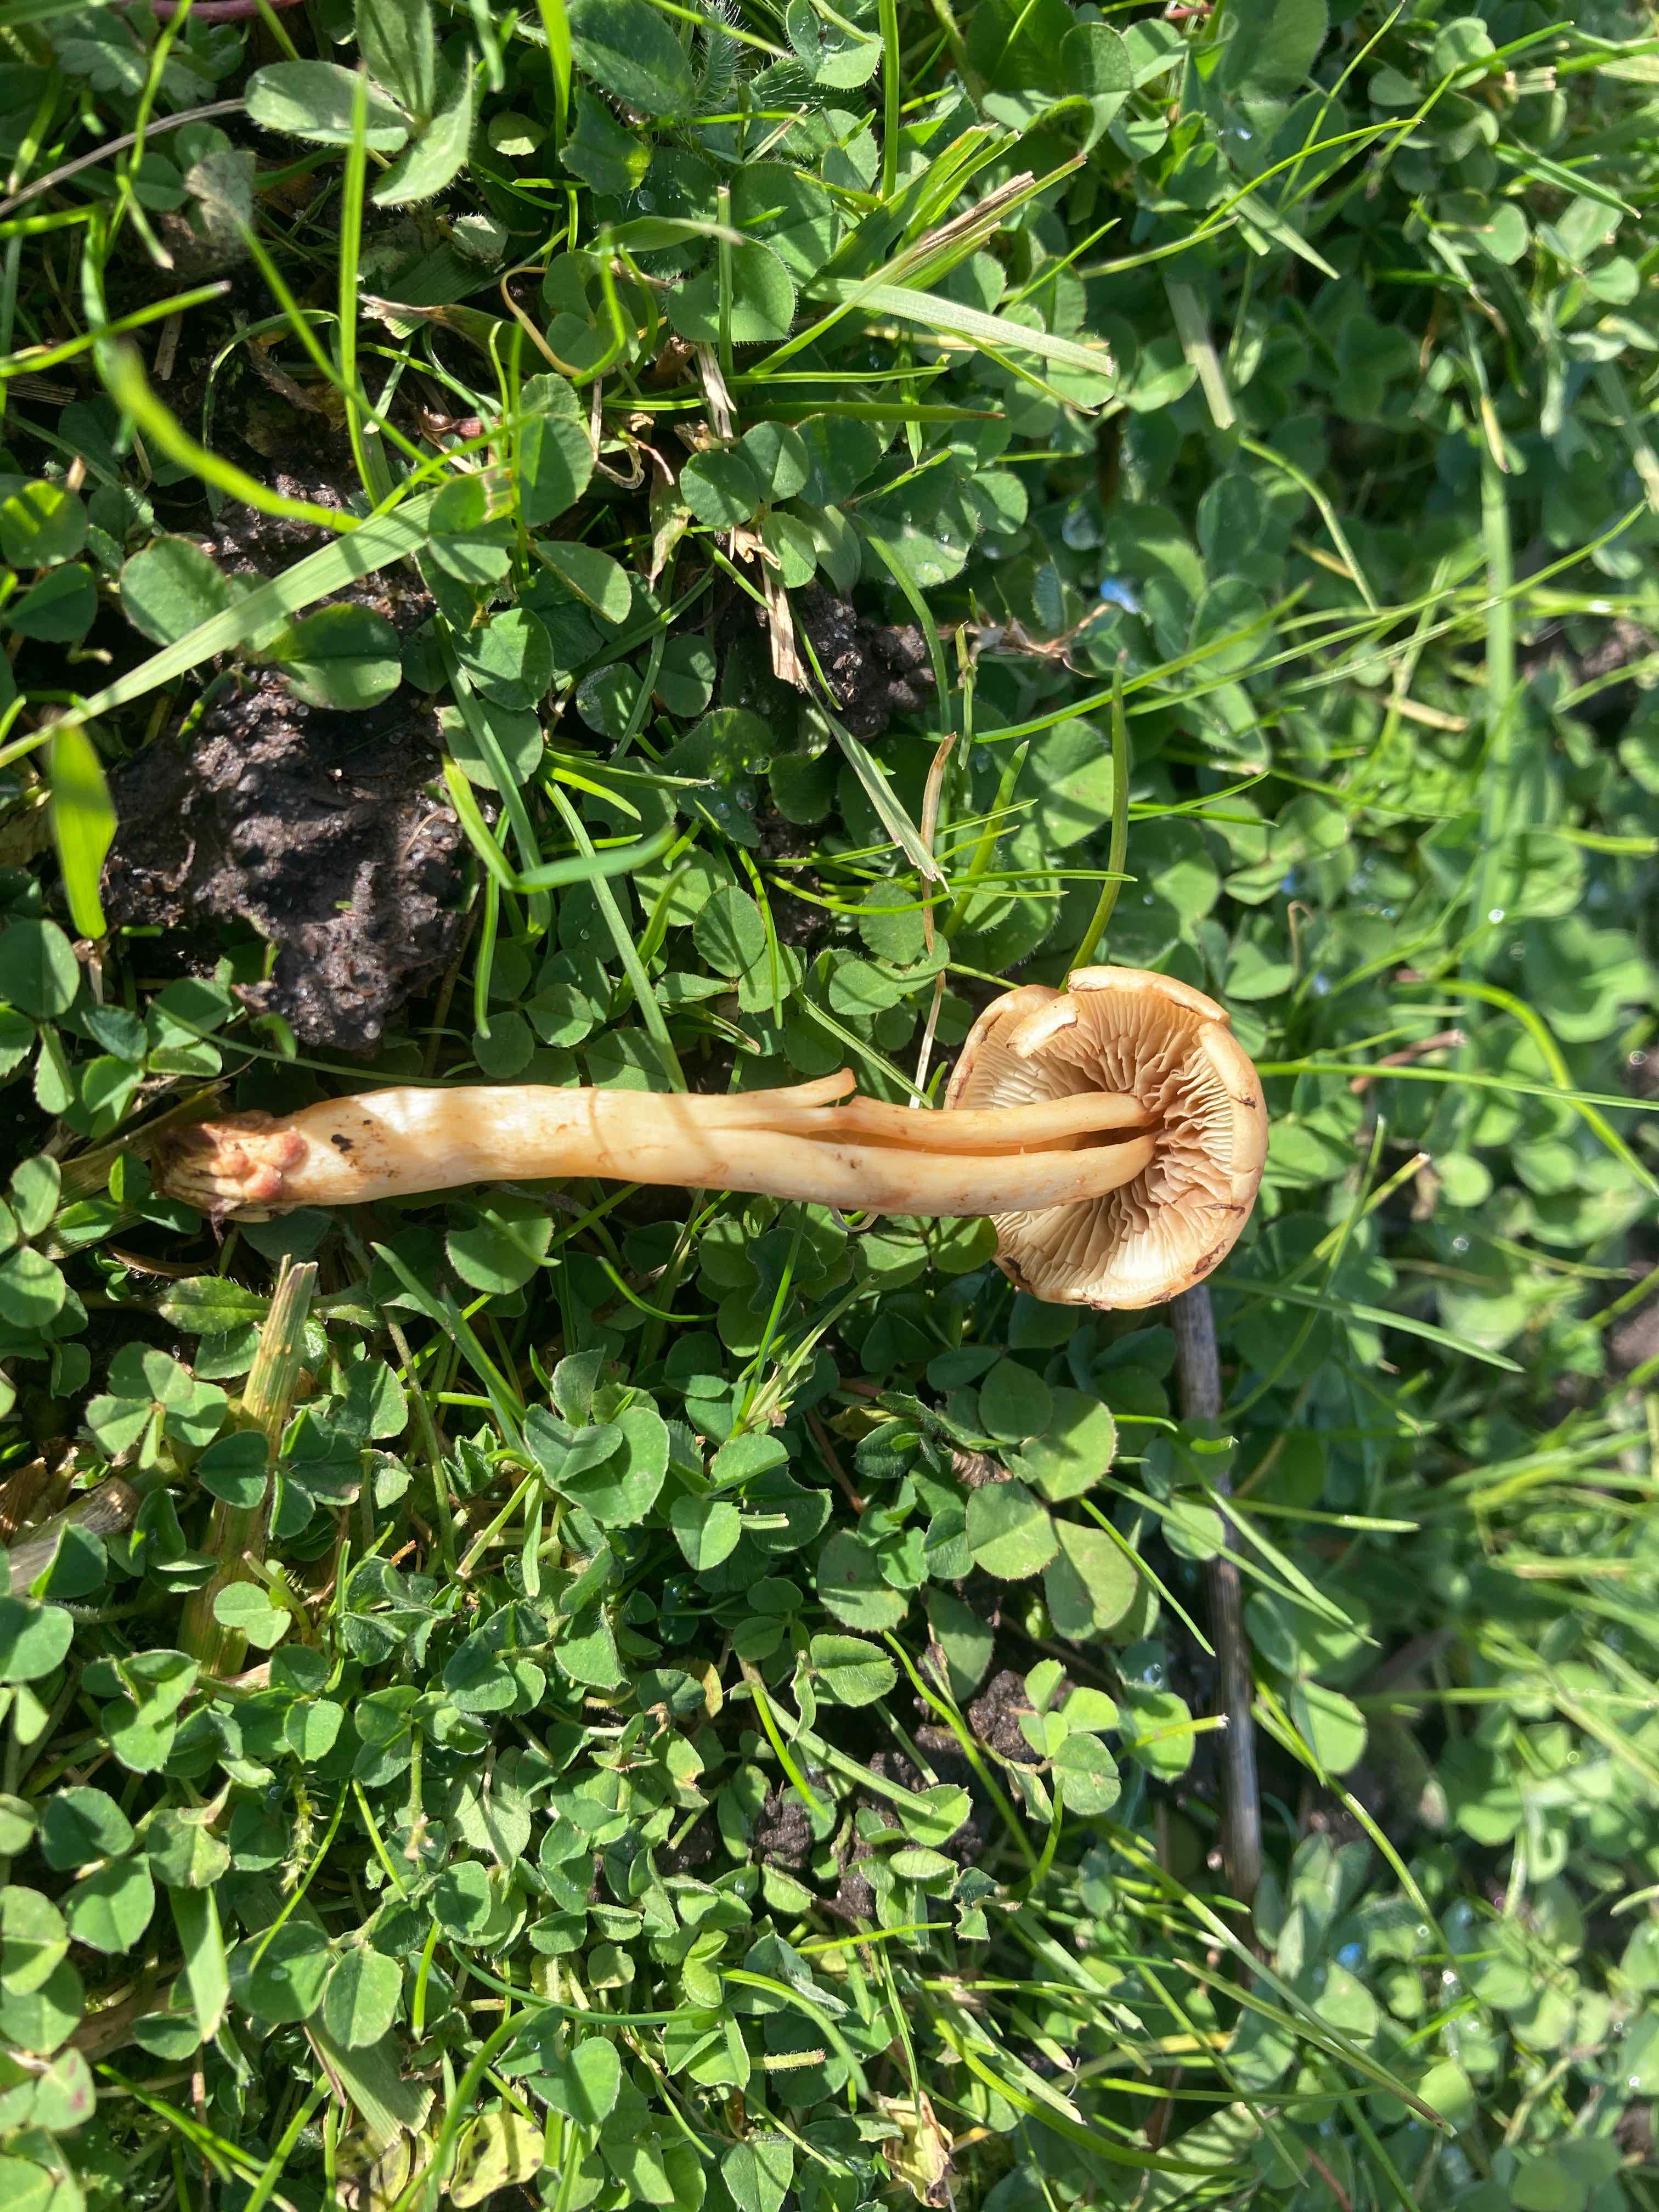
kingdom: Fungi
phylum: Basidiomycota
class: Agaricomycetes
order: Agaricales
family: Strophariaceae
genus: Hypholoma
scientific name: Hypholoma fasciculare
